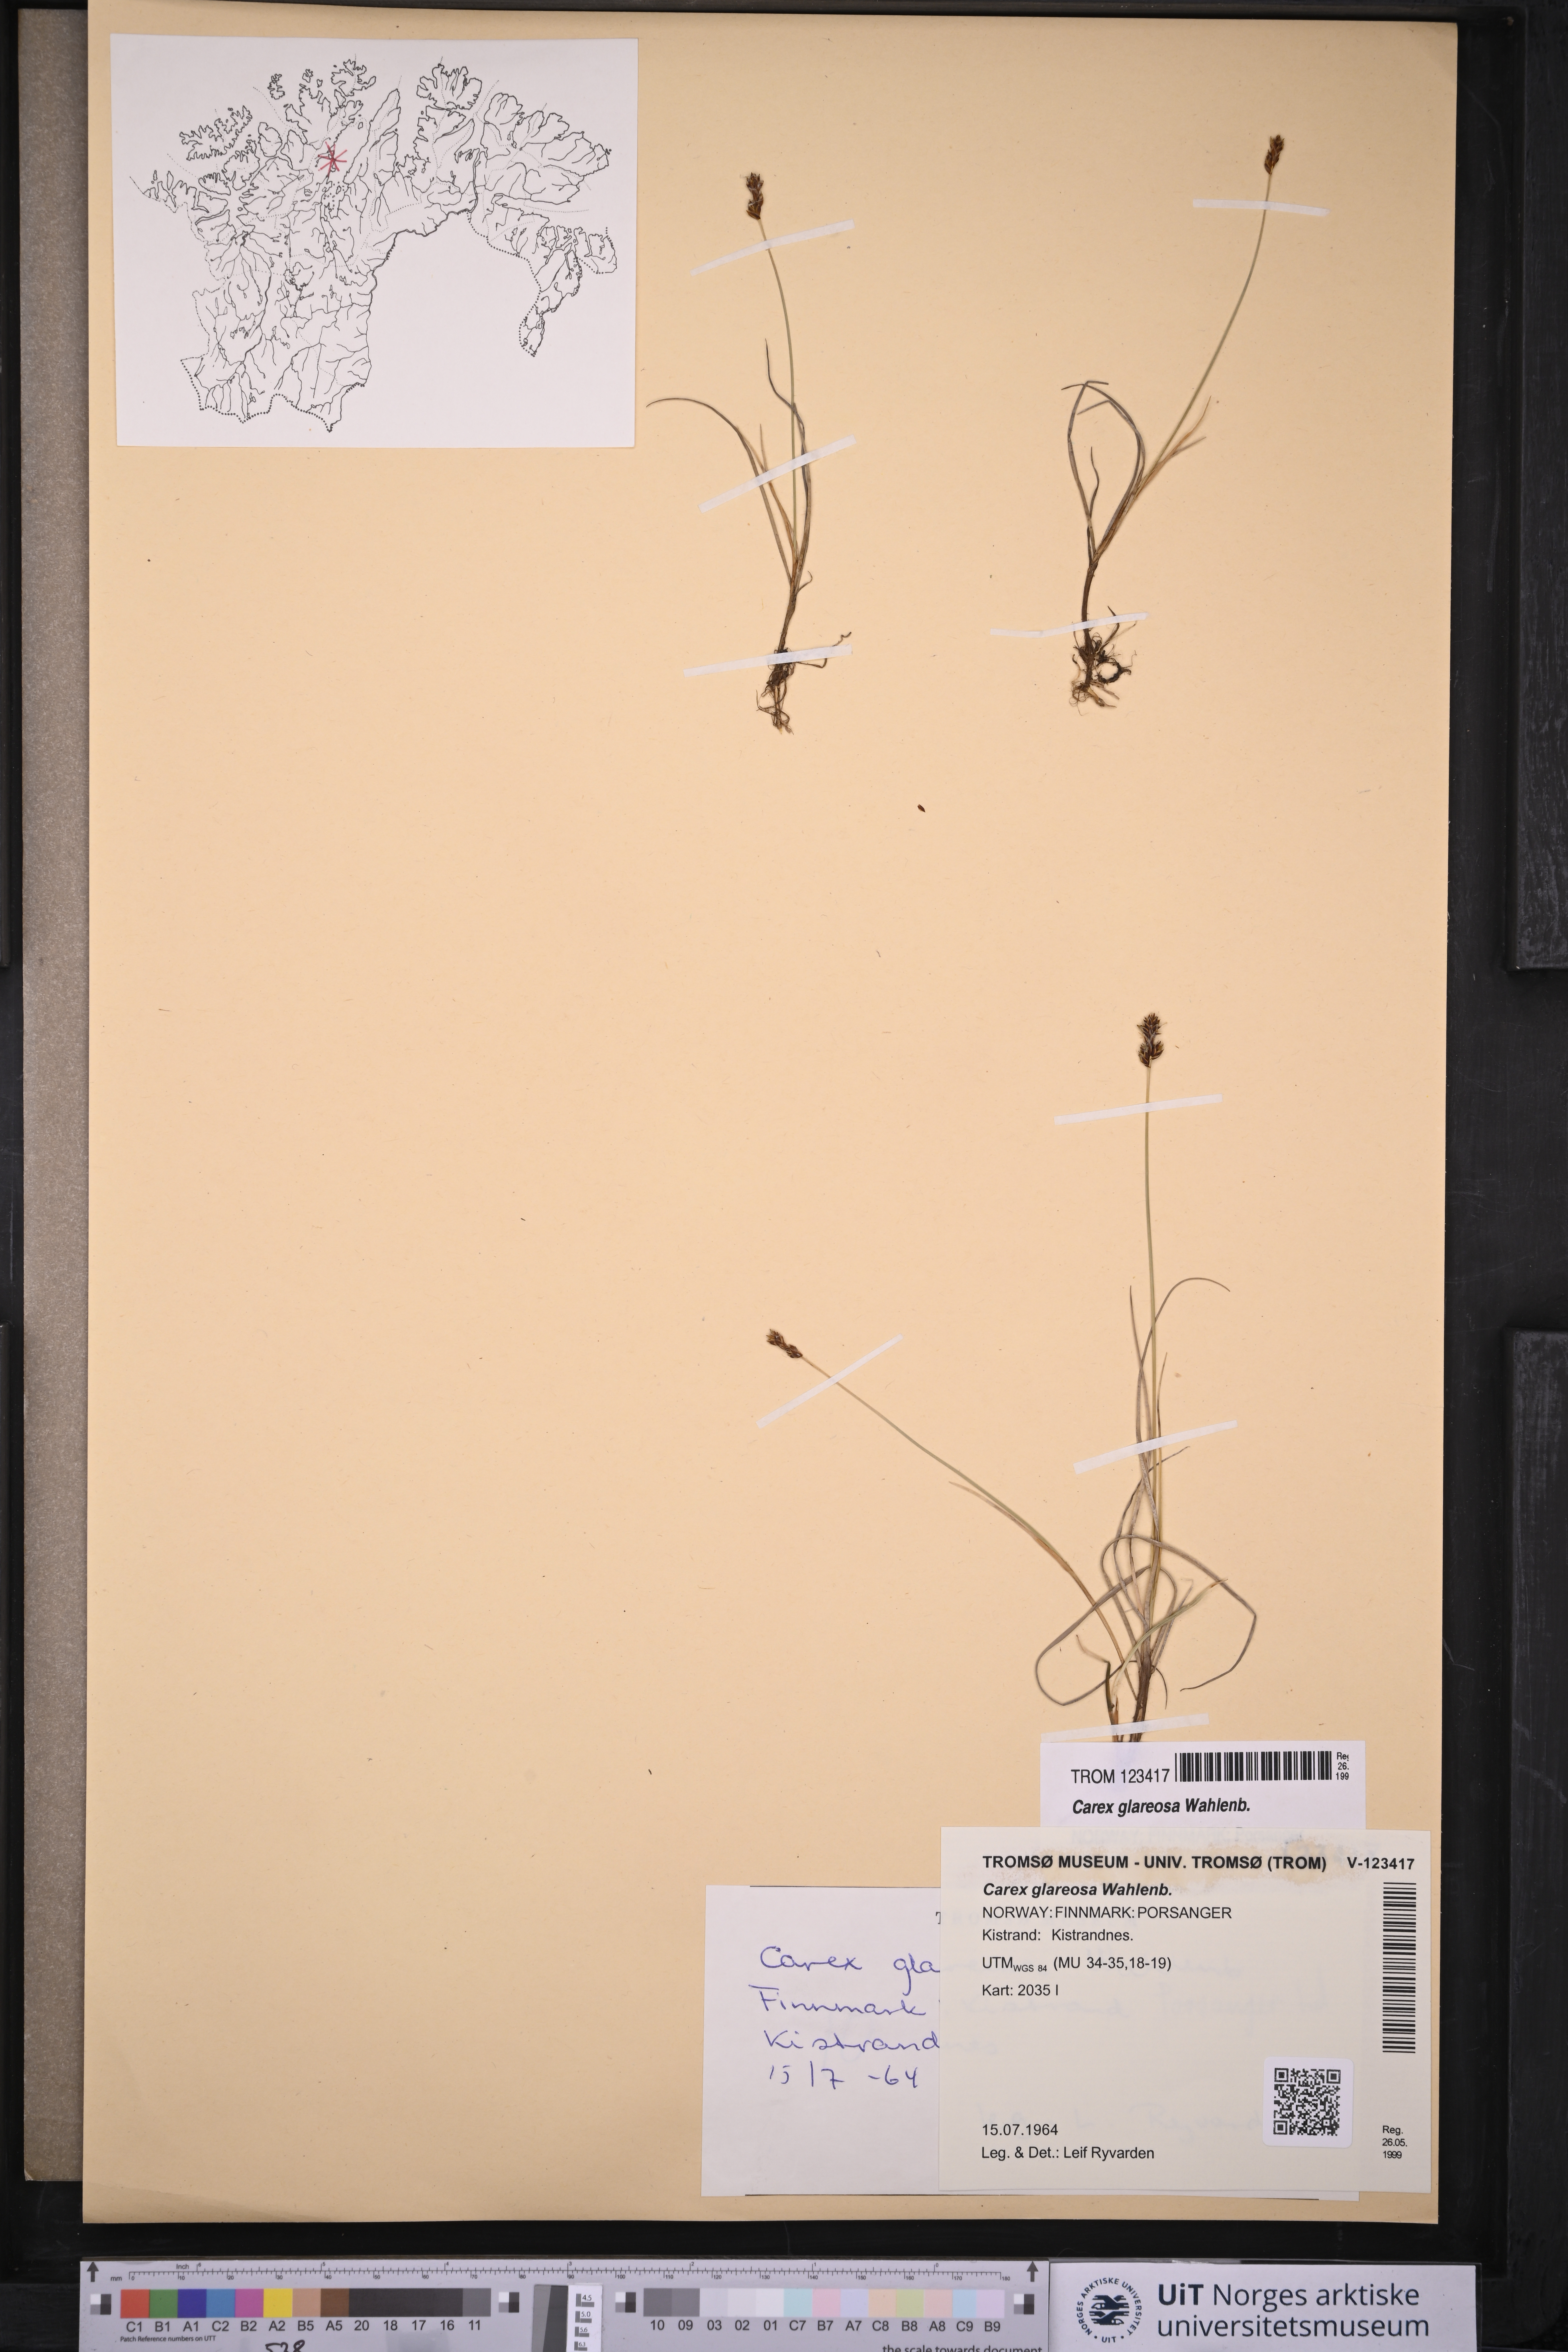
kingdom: Plantae
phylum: Tracheophyta
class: Liliopsida
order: Poales
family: Cyperaceae
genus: Carex
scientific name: Carex glareosa
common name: Clustered sedge
